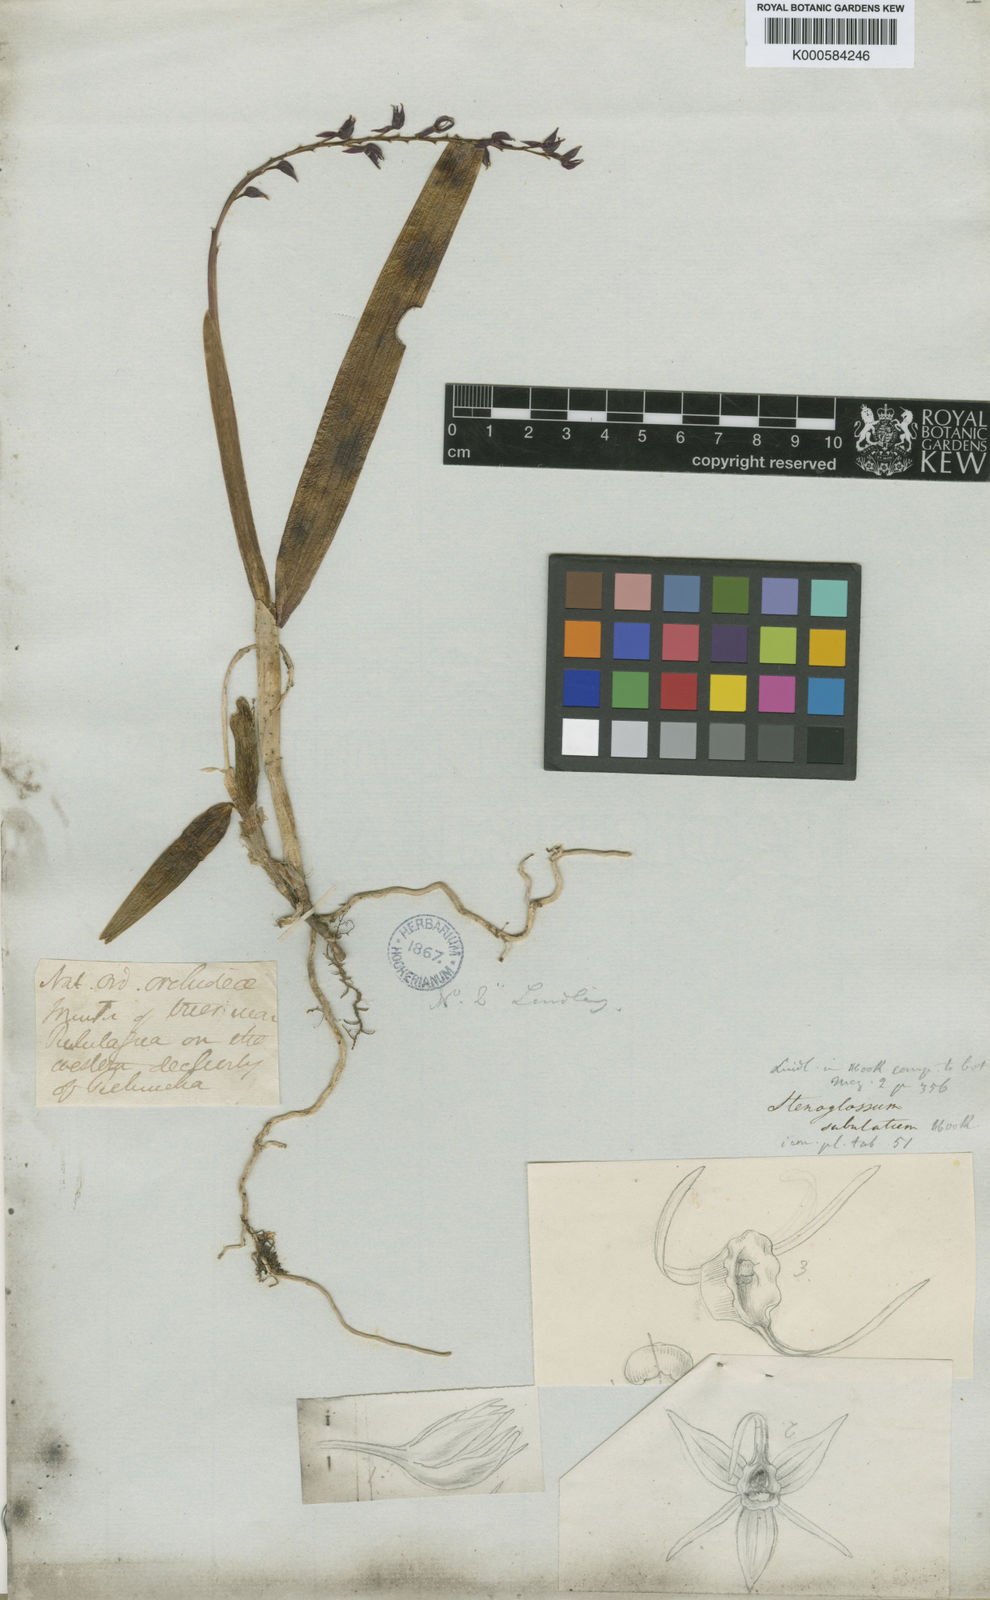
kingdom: Plantae
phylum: Tracheophyta
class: Liliopsida
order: Asparagales
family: Orchidaceae
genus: Epidendrum
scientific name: Epidendrum
